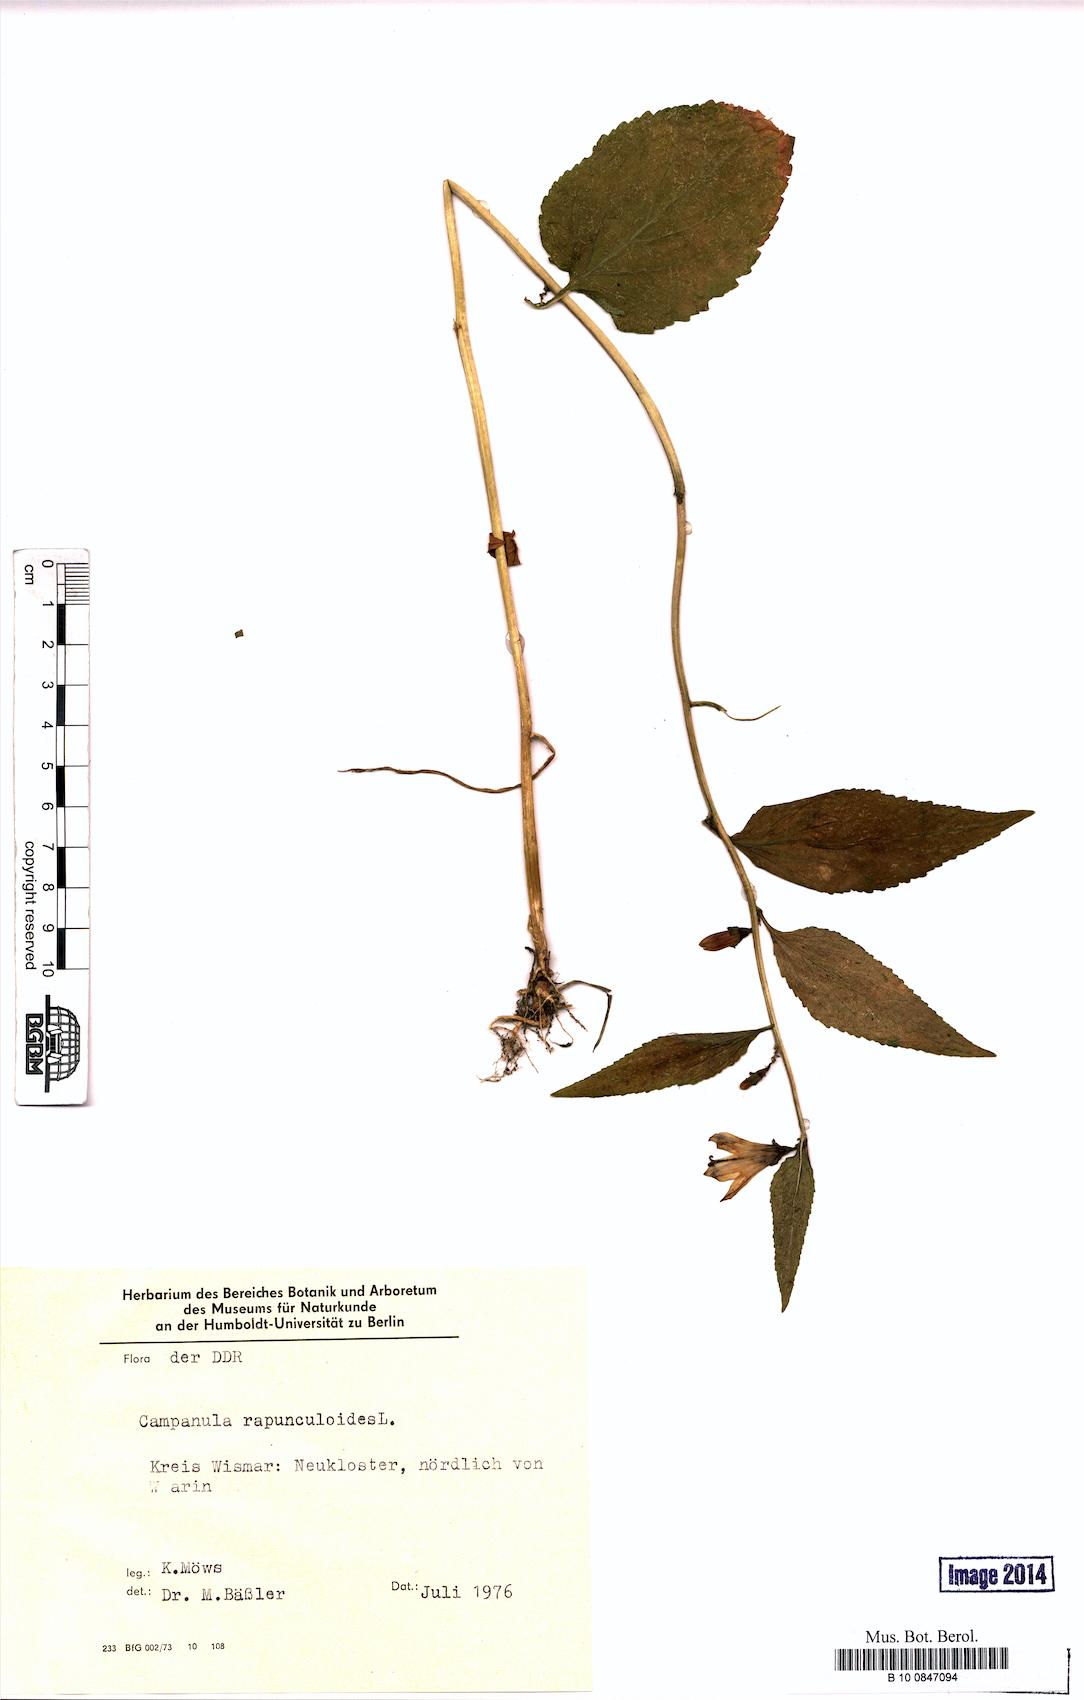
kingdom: Plantae
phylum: Tracheophyta
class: Magnoliopsida
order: Asterales
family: Campanulaceae
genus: Campanula
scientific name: Campanula rapunculoides
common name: Creeping bellflower
